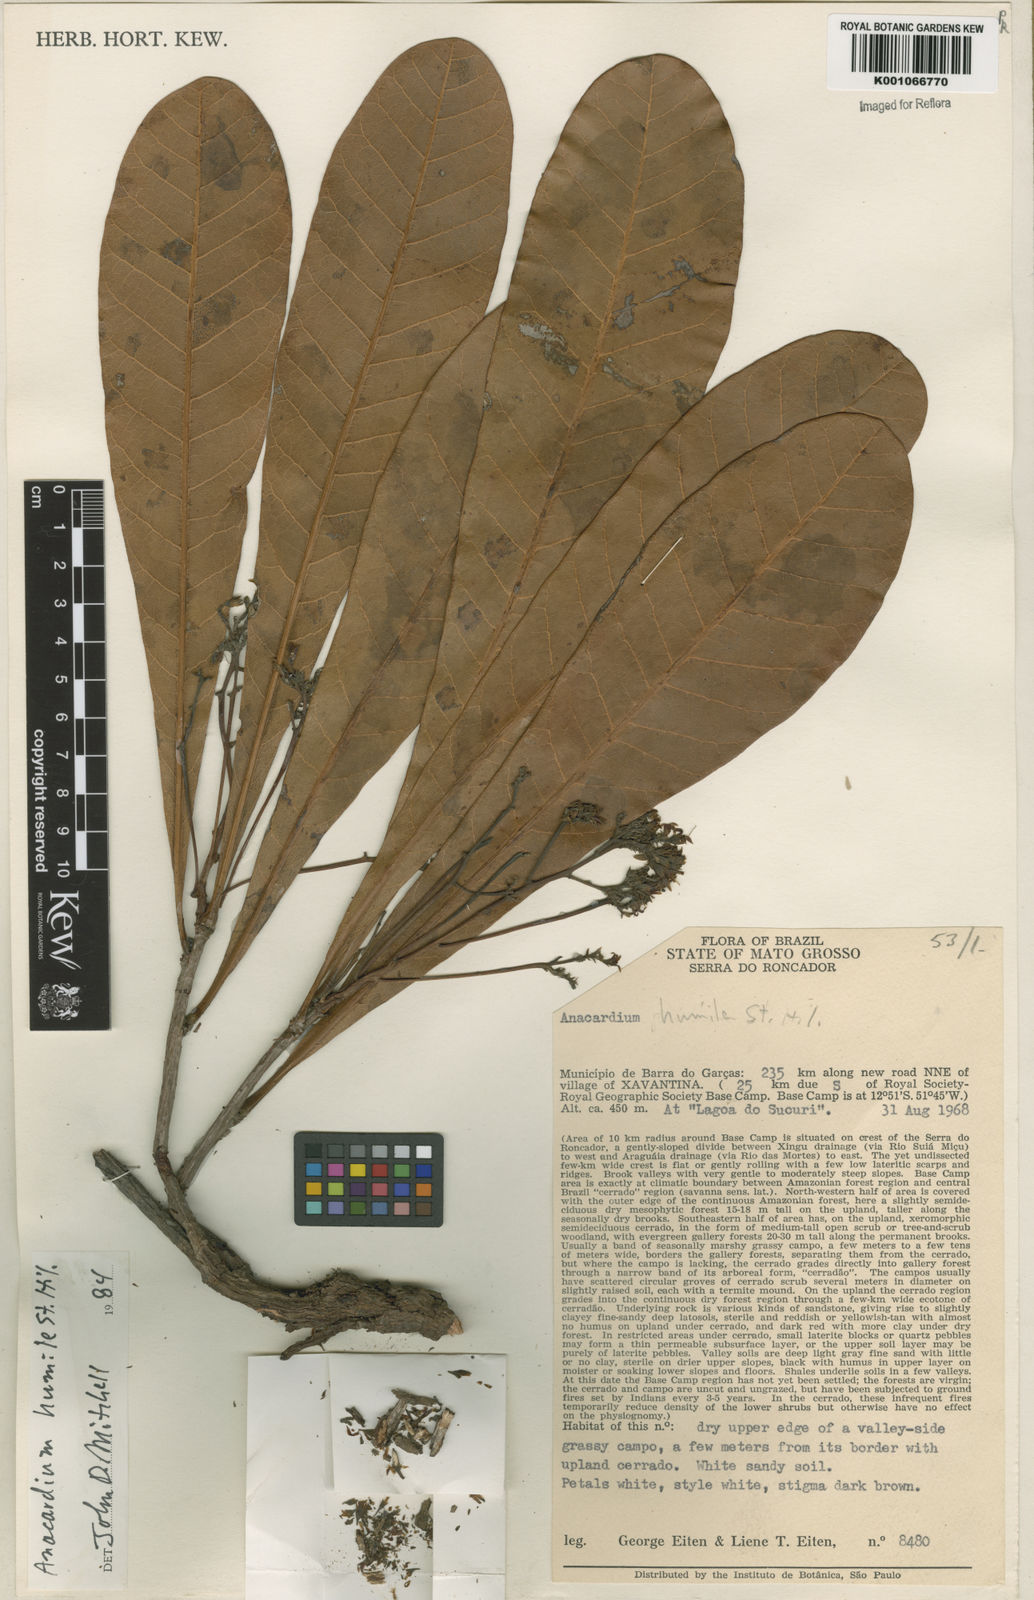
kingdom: Plantae
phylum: Tracheophyta
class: Magnoliopsida
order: Sapindales
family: Anacardiaceae
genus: Anacardium
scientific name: Anacardium humile
